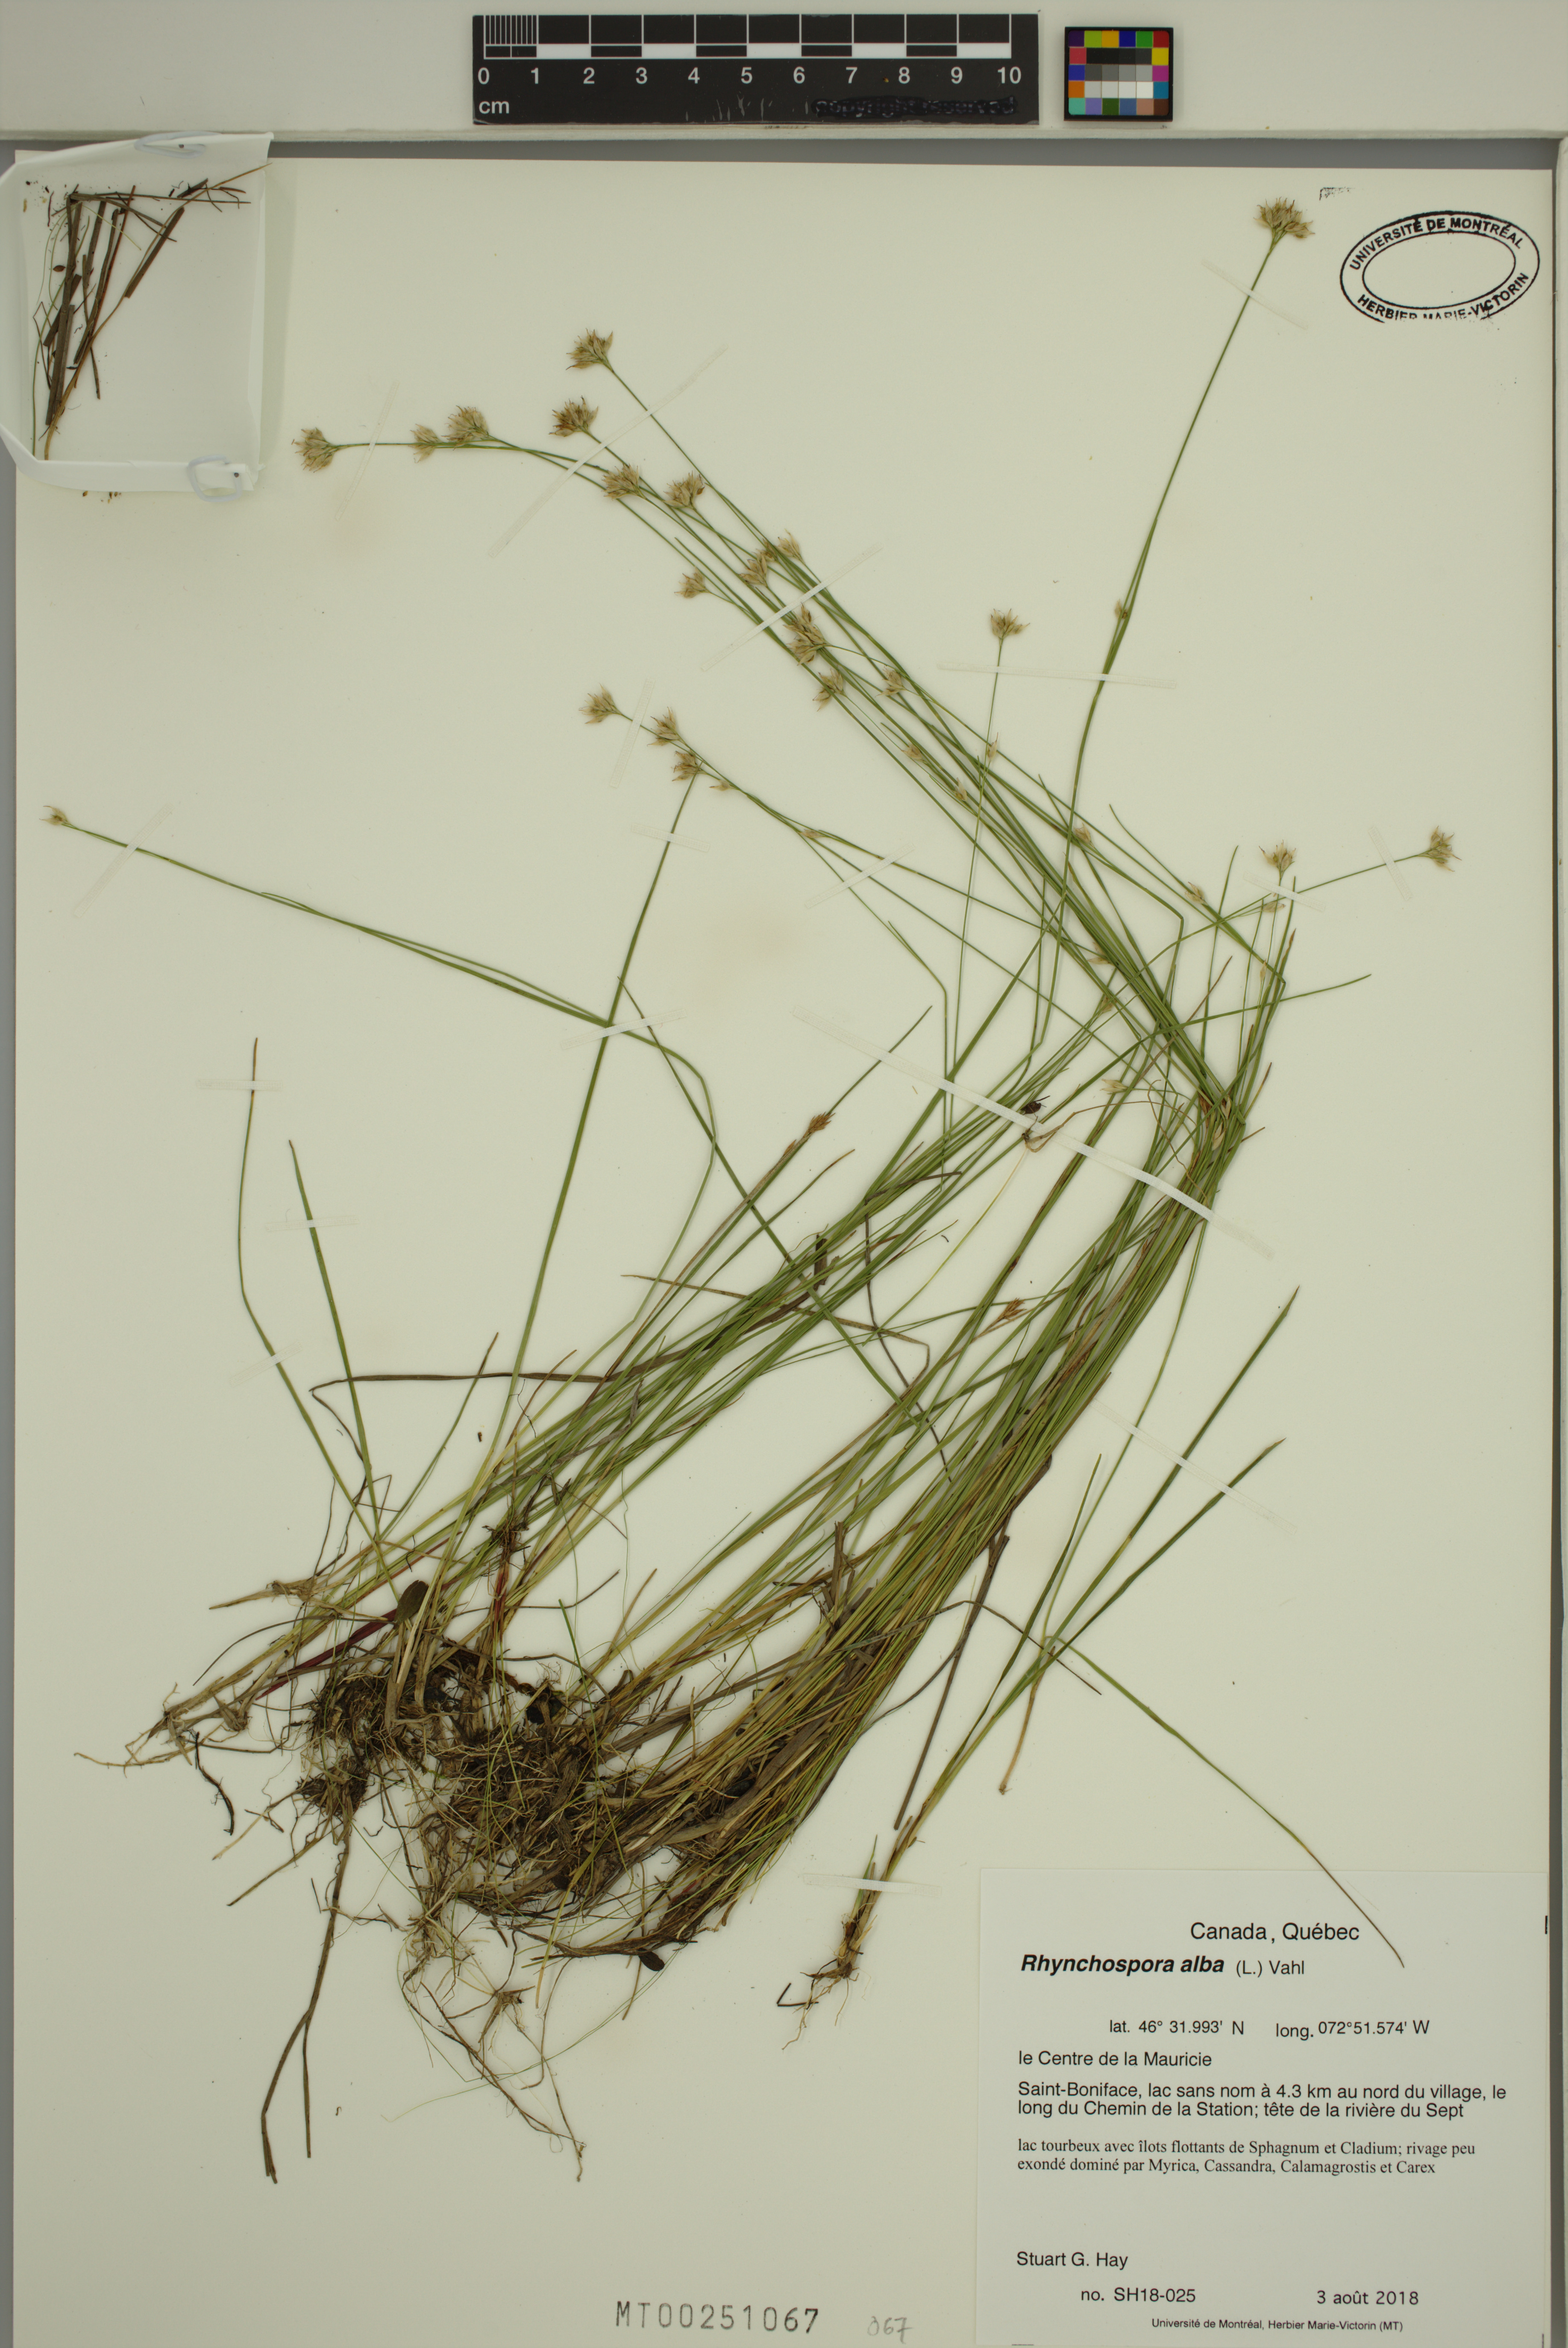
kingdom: Plantae
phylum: Tracheophyta
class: Liliopsida
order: Poales
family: Cyperaceae
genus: Rhynchospora
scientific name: Rhynchospora alba
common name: White beak-sedge
